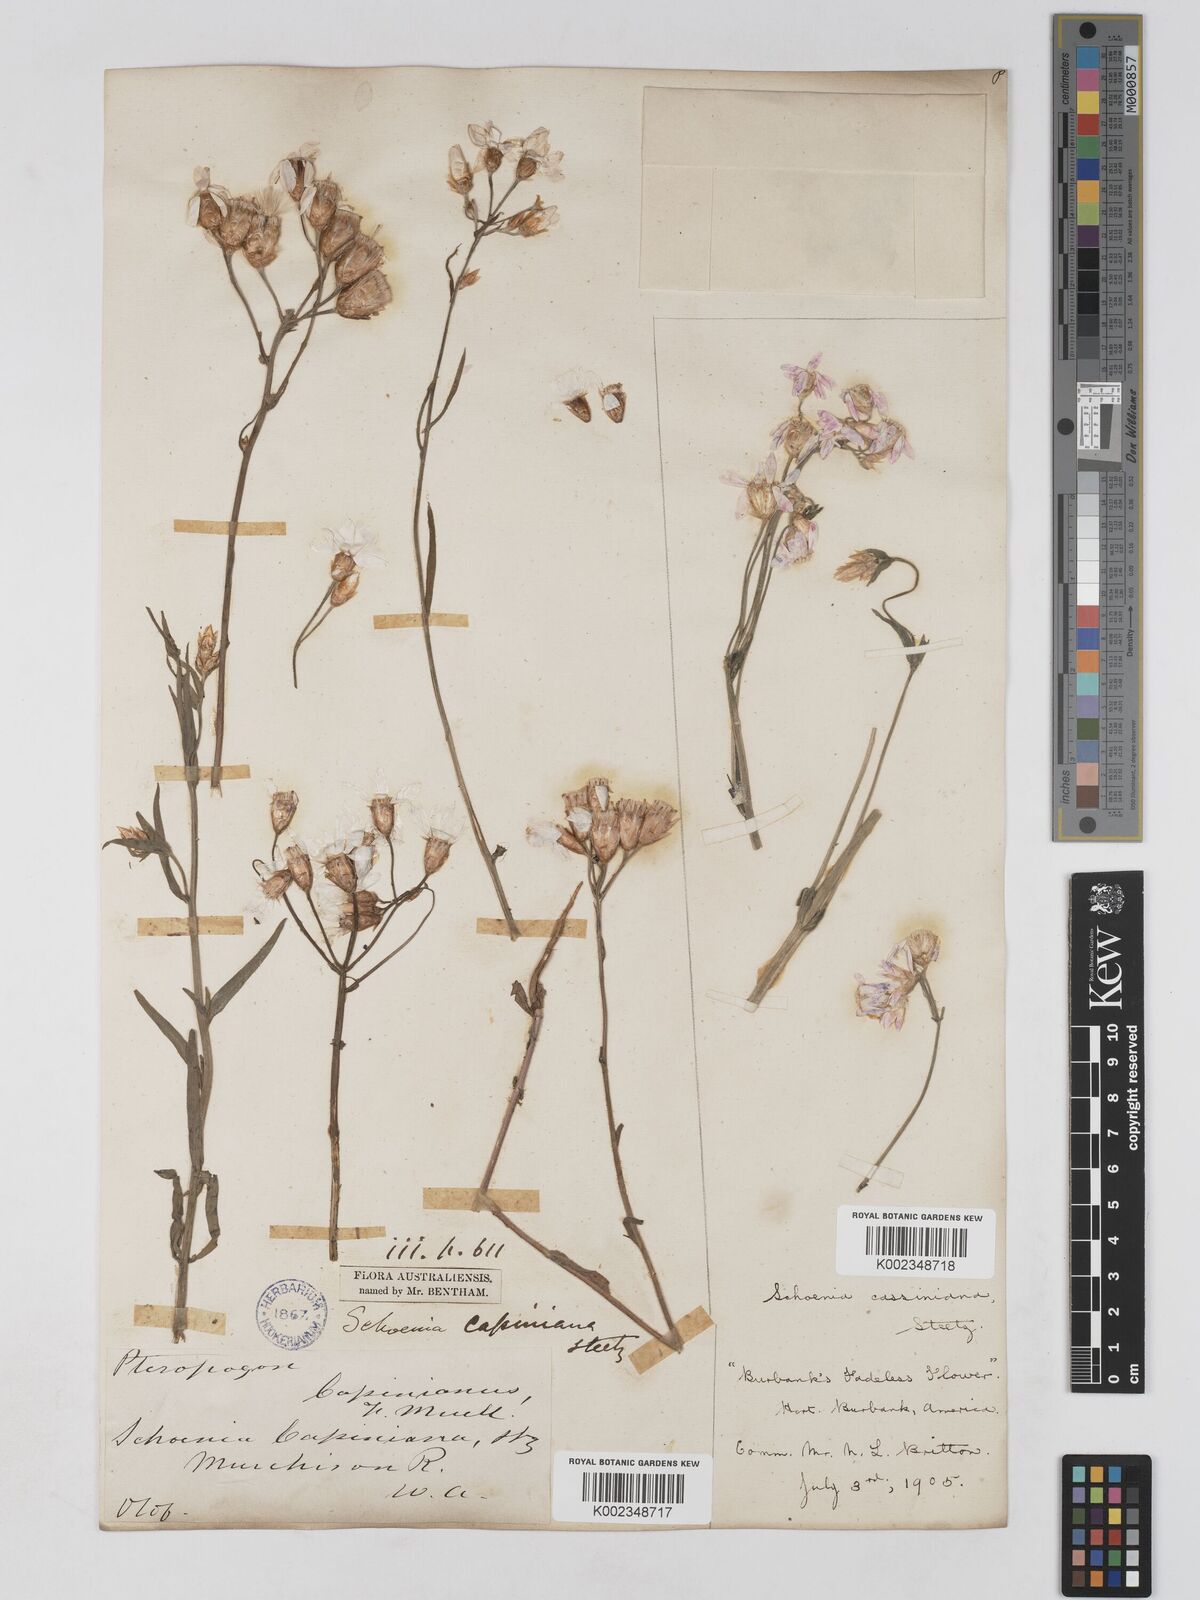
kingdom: Plantae
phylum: Tracheophyta
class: Magnoliopsida
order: Asterales
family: Asteraceae
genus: Schoenia
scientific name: Schoenia cassiniana
